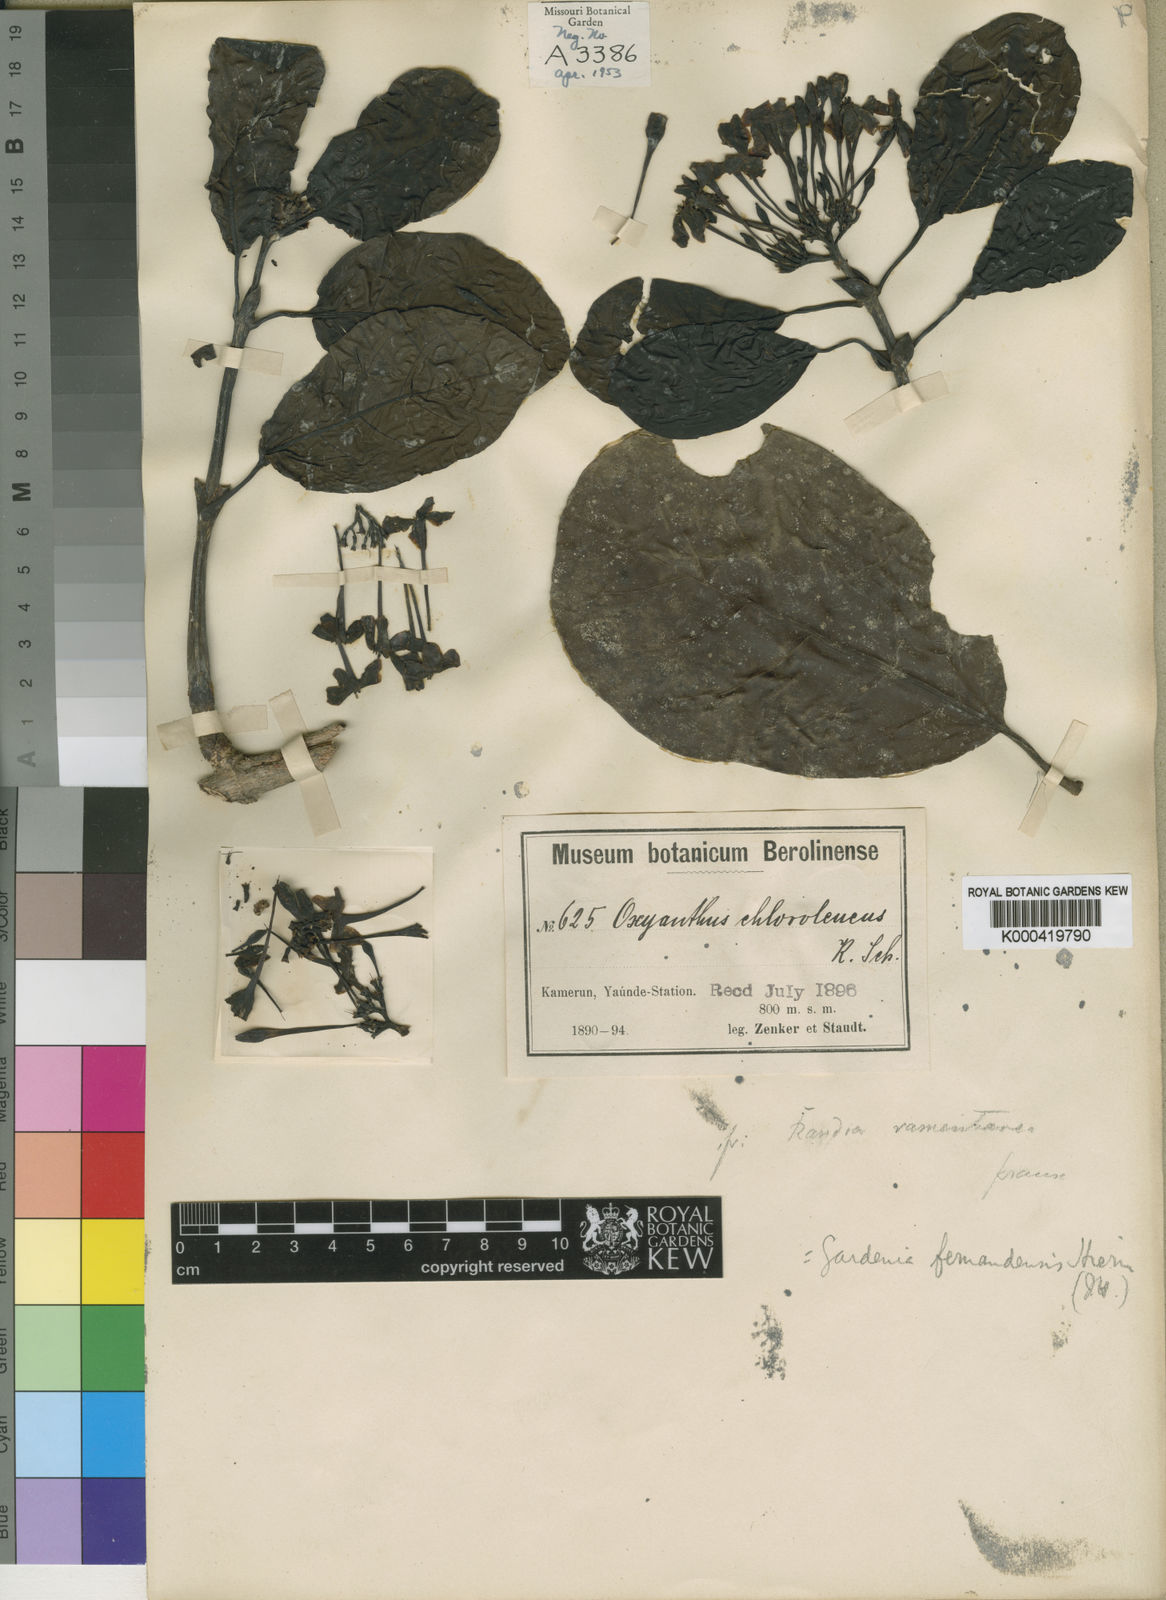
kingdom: Plantae
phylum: Tracheophyta
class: Magnoliopsida
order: Gentianales
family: Rubiaceae
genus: Pleiocoryne
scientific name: Pleiocoryne fernandensis
